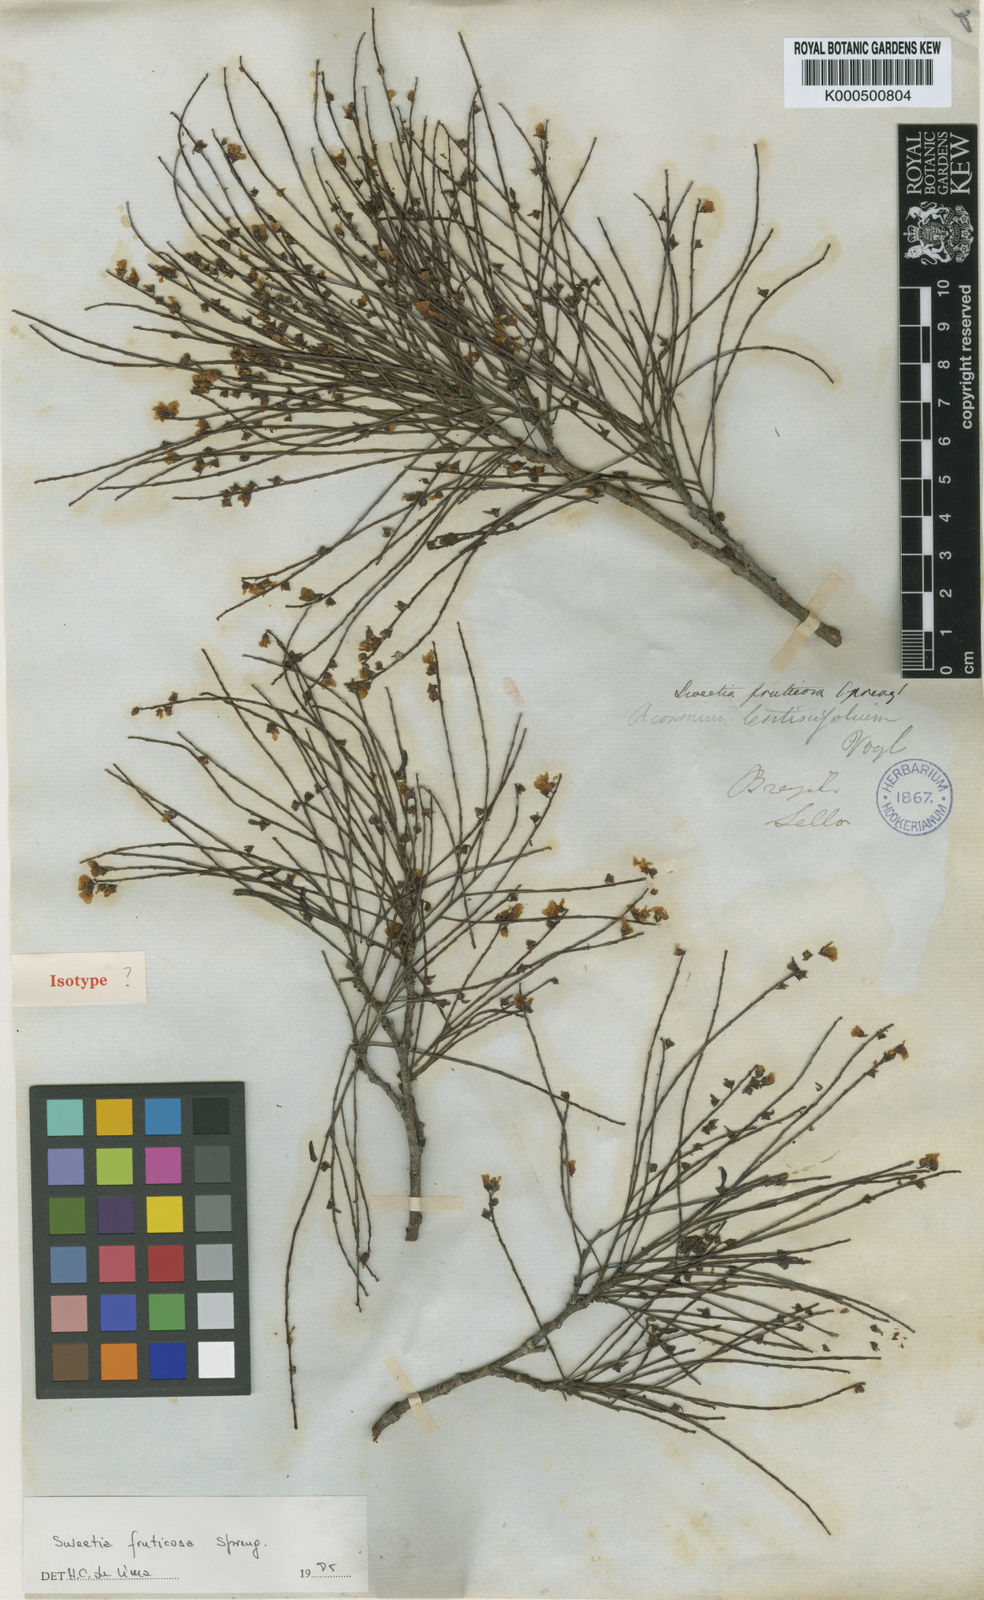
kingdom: Plantae
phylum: Tracheophyta
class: Magnoliopsida
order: Fabales
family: Fabaceae
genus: Sweetia
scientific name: Sweetia fruticosa
